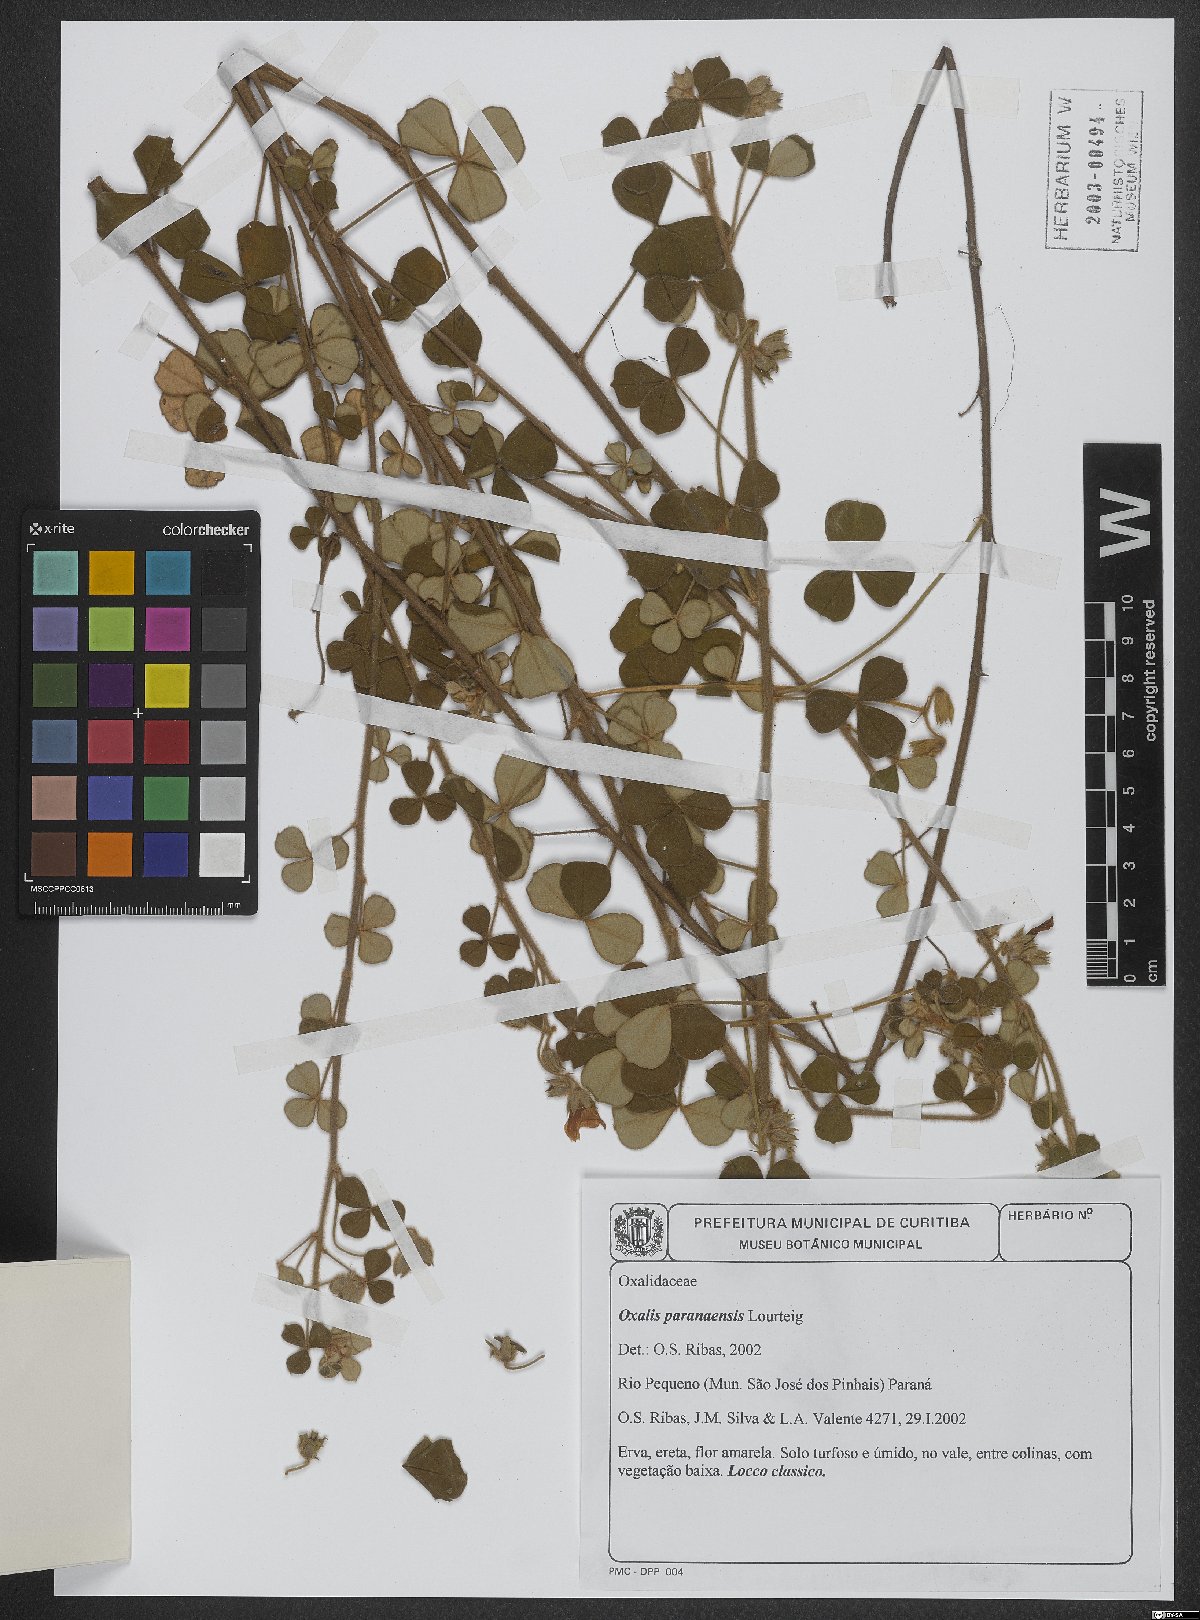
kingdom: Plantae
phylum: Tracheophyta
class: Magnoliopsida
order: Oxalidales
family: Oxalidaceae
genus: Oxalis
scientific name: Oxalis paranaensis
